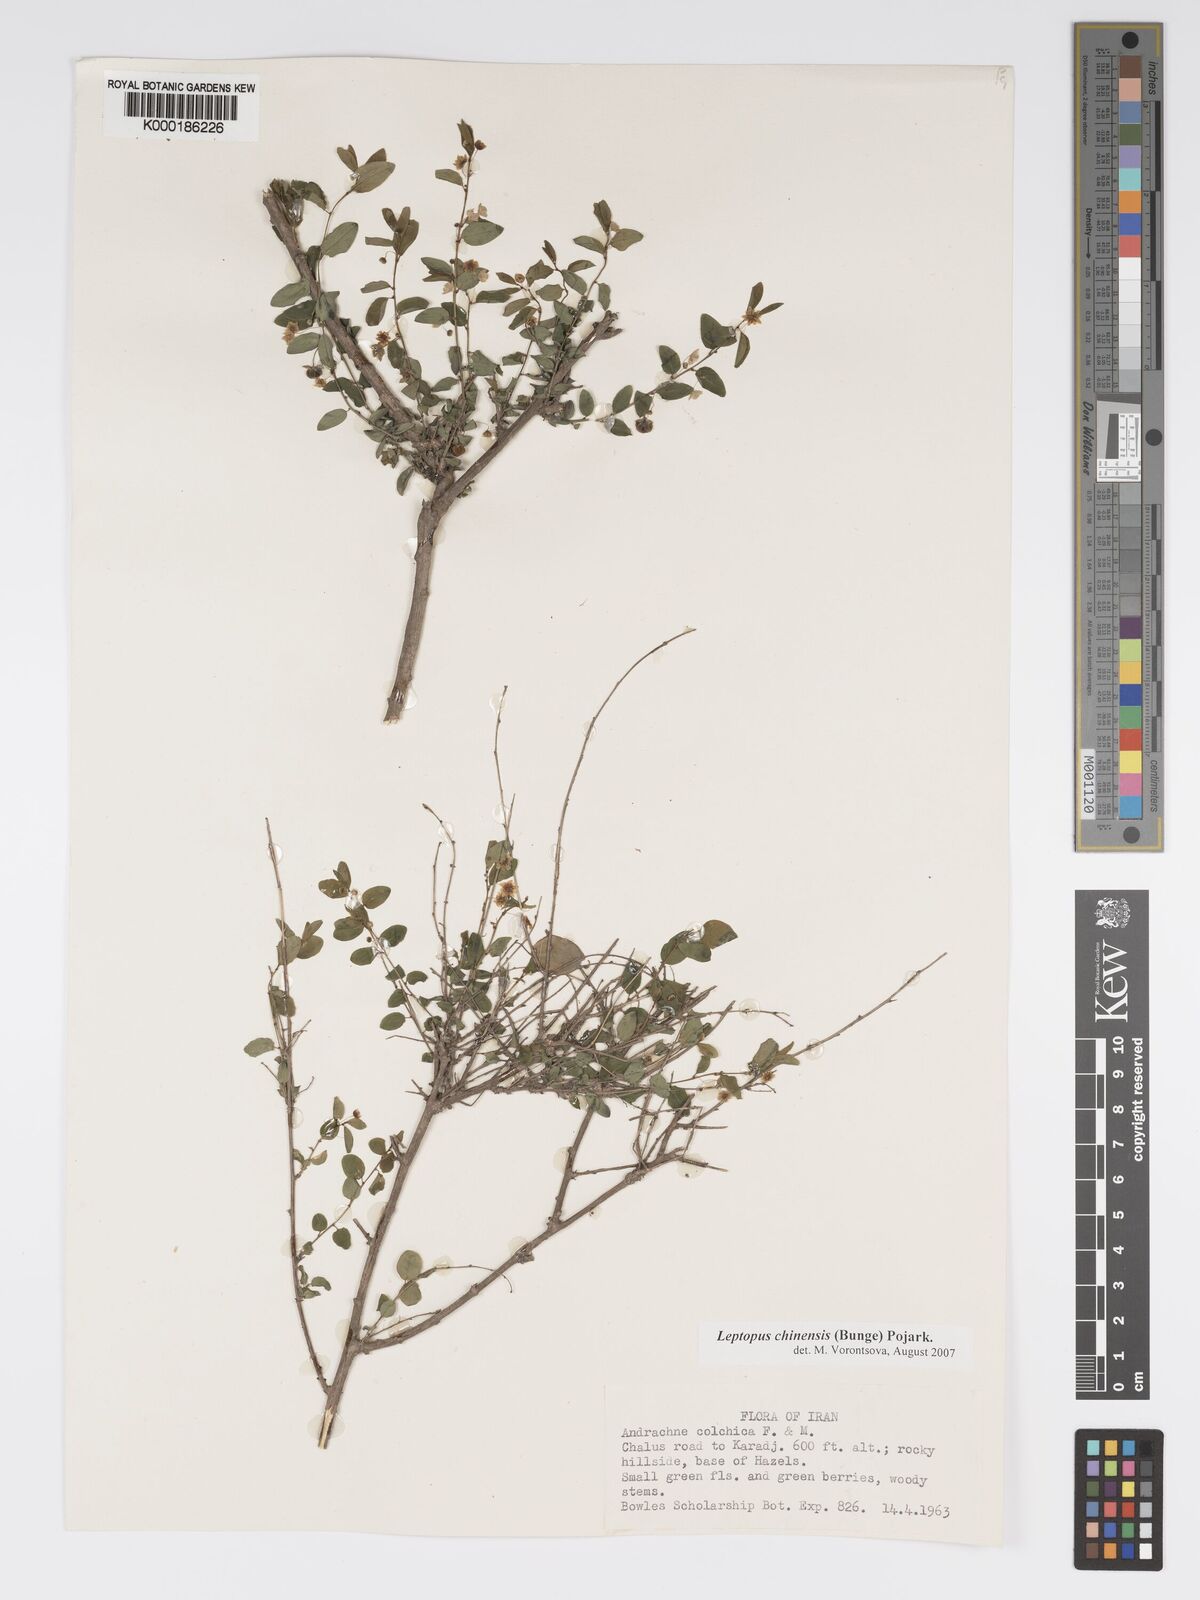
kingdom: Plantae
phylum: Tracheophyta
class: Magnoliopsida
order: Malpighiales
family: Phyllanthaceae
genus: Leptopus
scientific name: Leptopus chinensis
